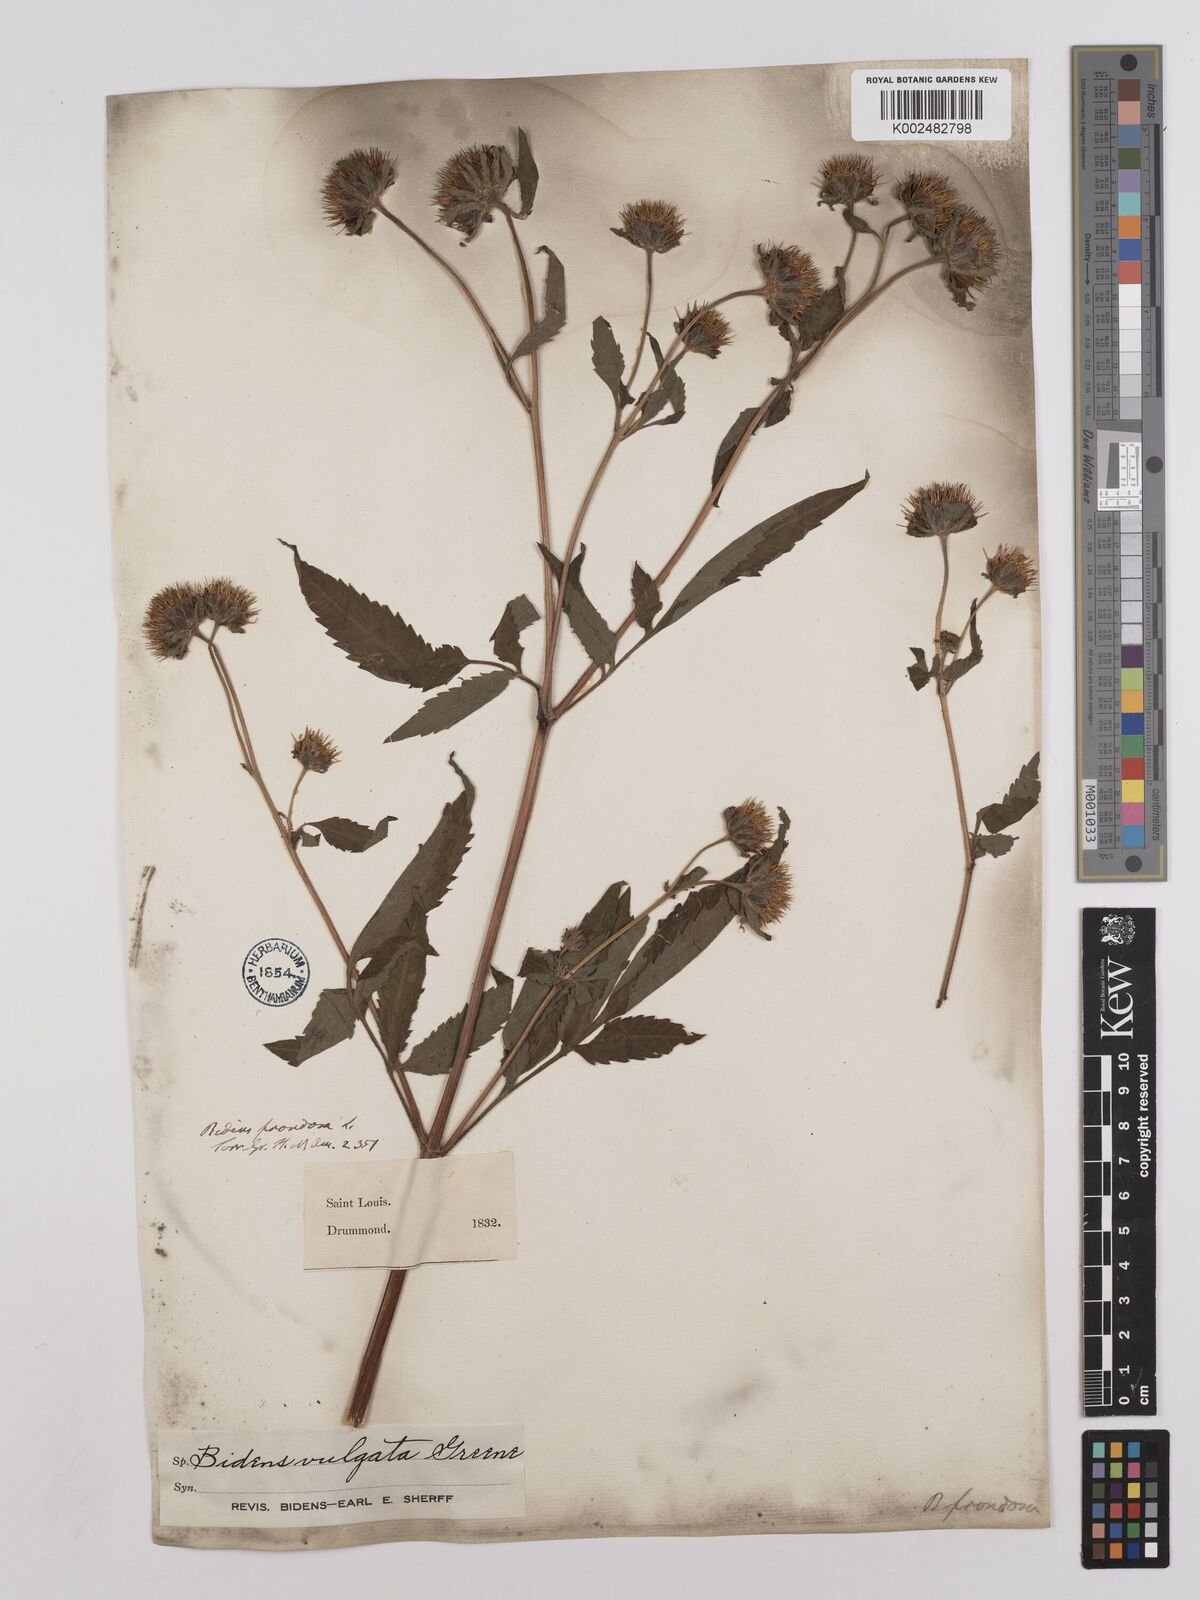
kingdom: Plantae
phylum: Tracheophyta
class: Magnoliopsida
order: Asterales
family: Asteraceae
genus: Bidens
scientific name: Bidens vulgata
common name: Tall beggarticks
